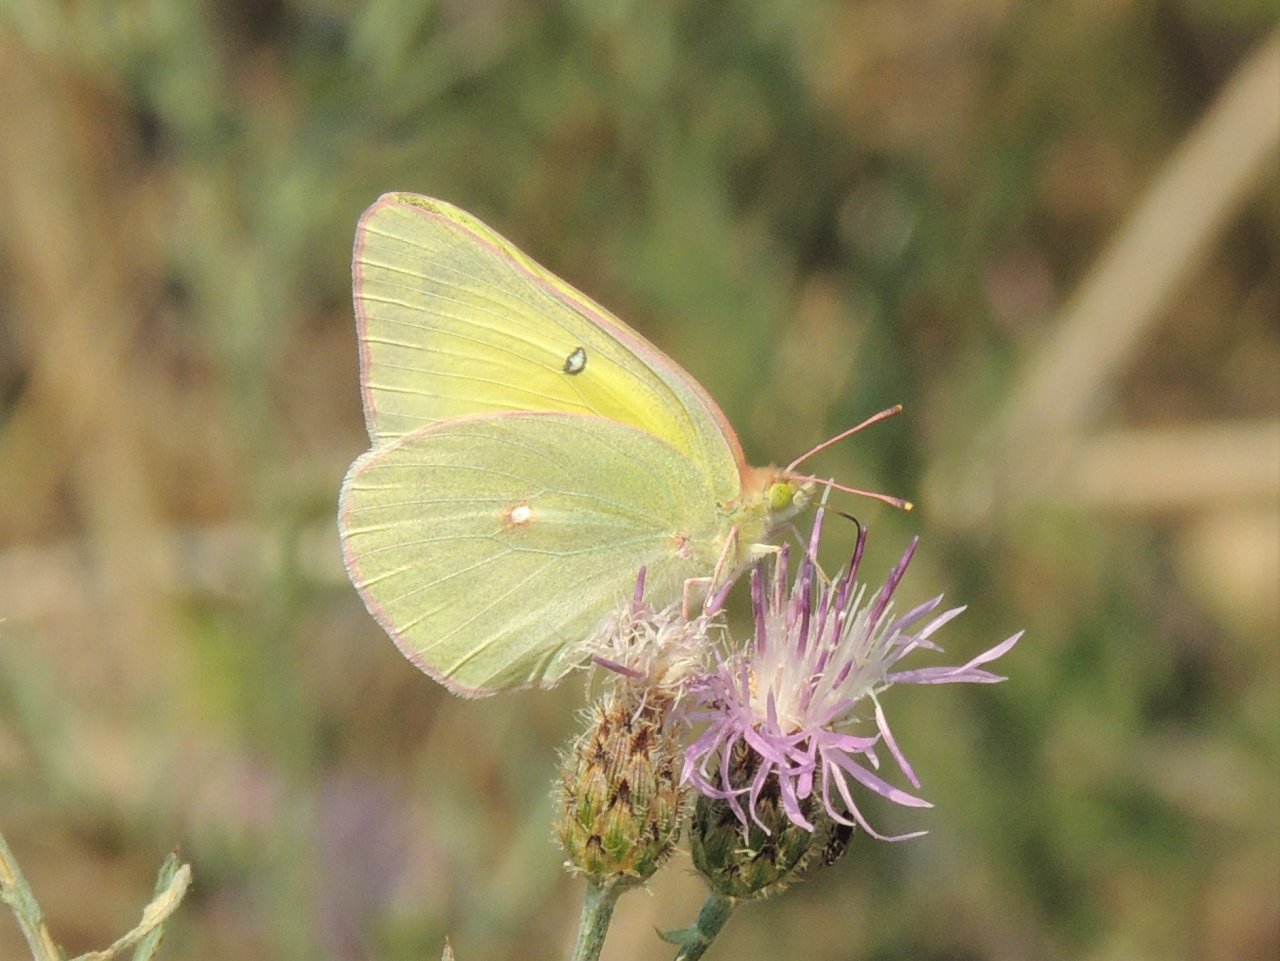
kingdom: Animalia
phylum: Arthropoda
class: Insecta
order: Lepidoptera
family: Pieridae
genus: Colias
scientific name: Colias alexandra
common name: Queen Alexandra's Sulphur
